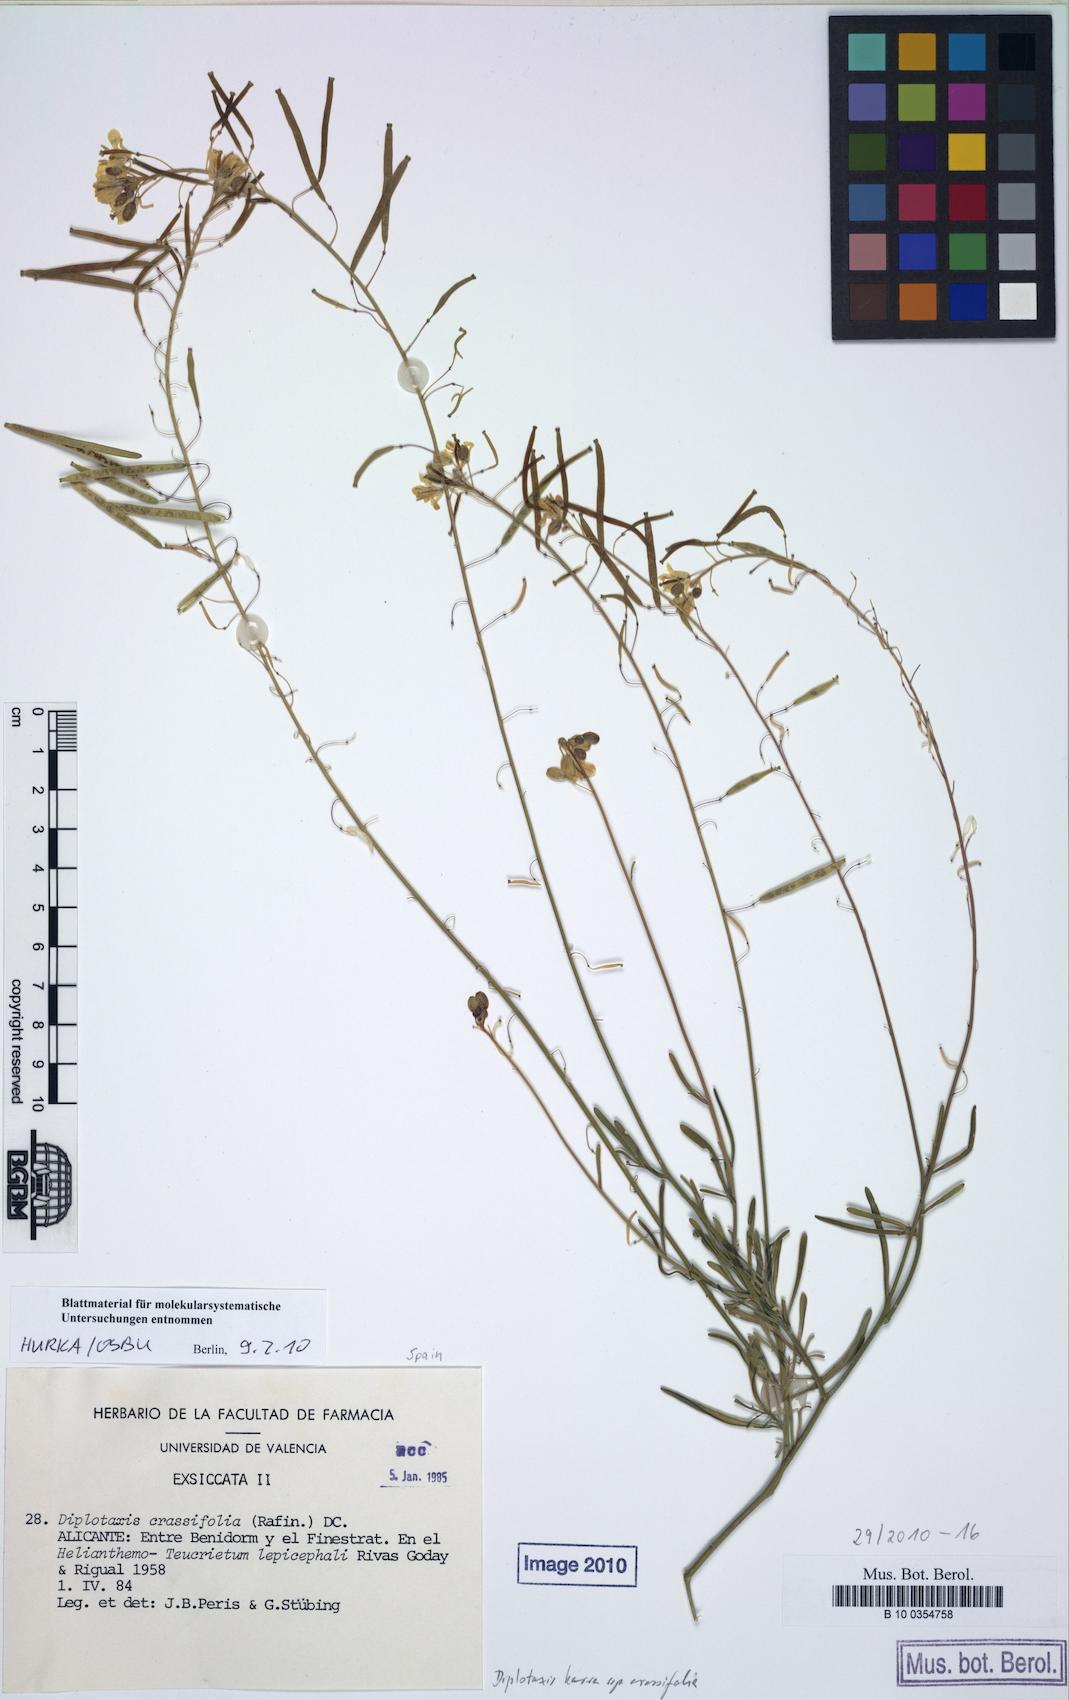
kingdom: Plantae
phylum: Tracheophyta
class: Magnoliopsida
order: Brassicales
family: Brassicaceae
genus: Diplotaxis
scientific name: Diplotaxis harra
